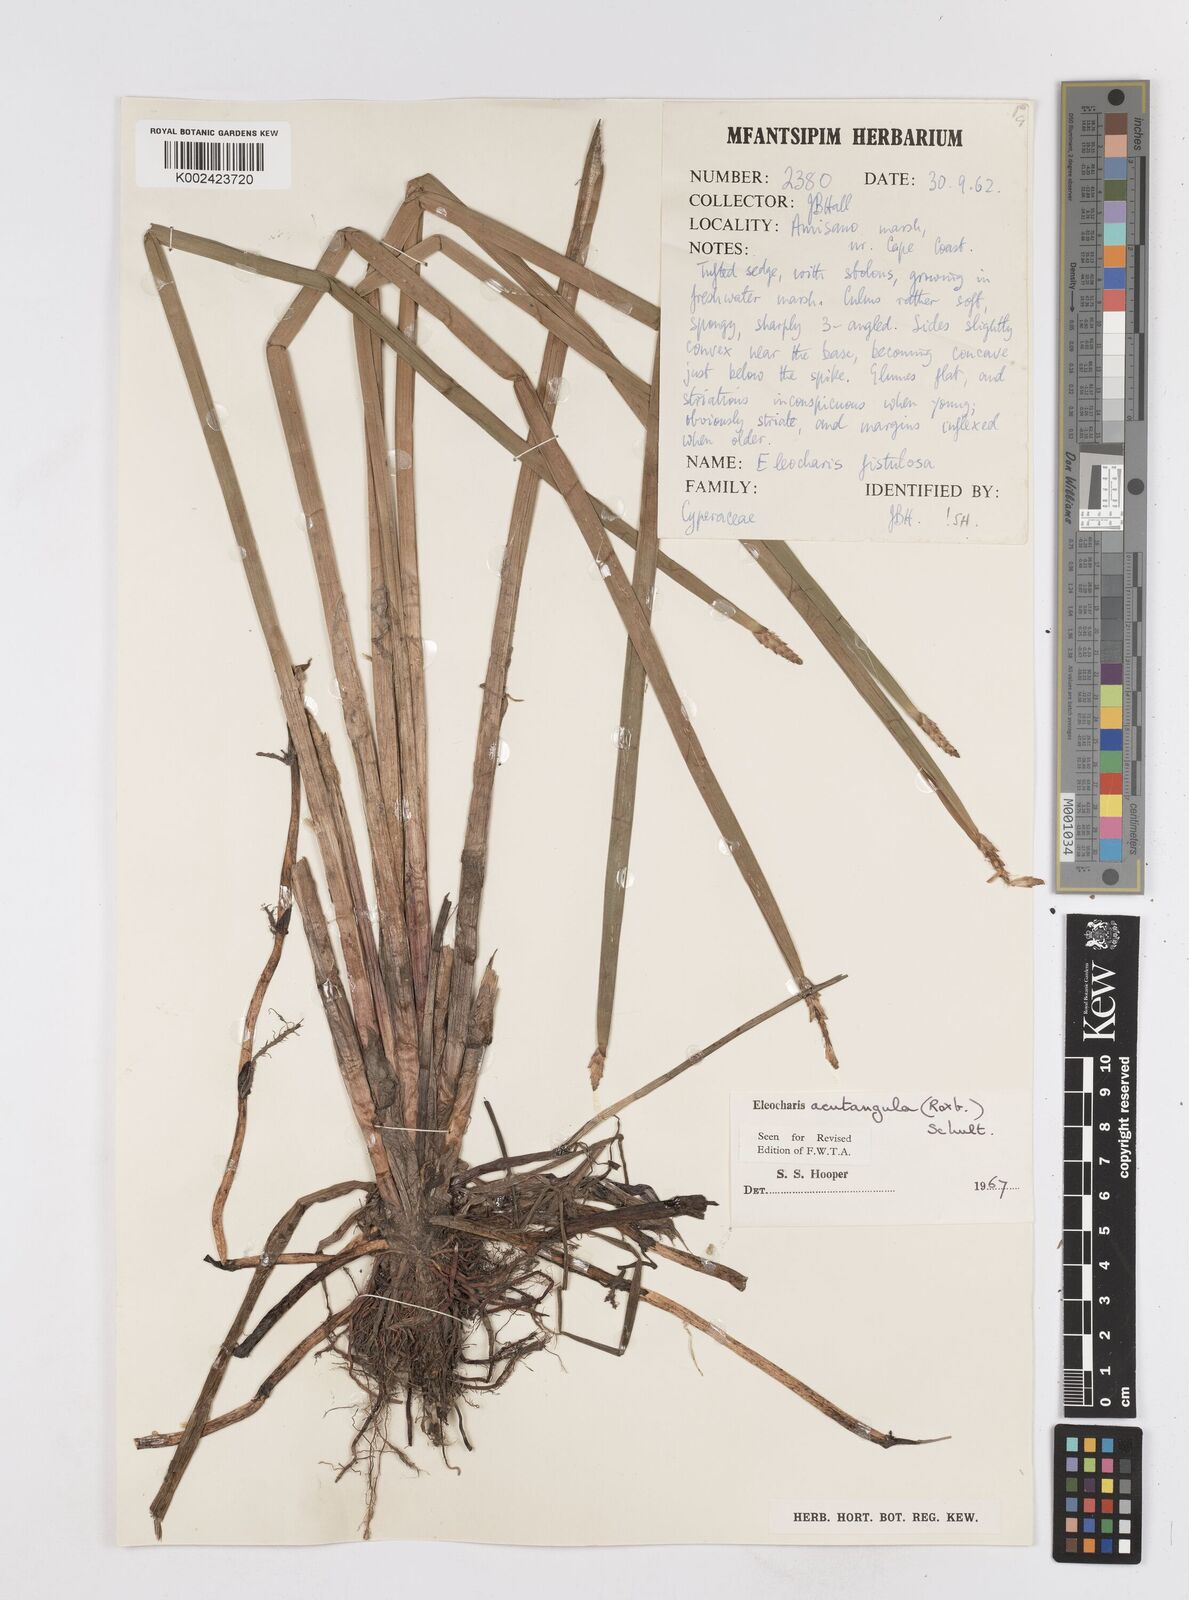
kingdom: Plantae
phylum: Tracheophyta
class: Liliopsida
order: Poales
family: Cyperaceae
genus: Eleocharis
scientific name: Eleocharis acutangula
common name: Acute spikerush
